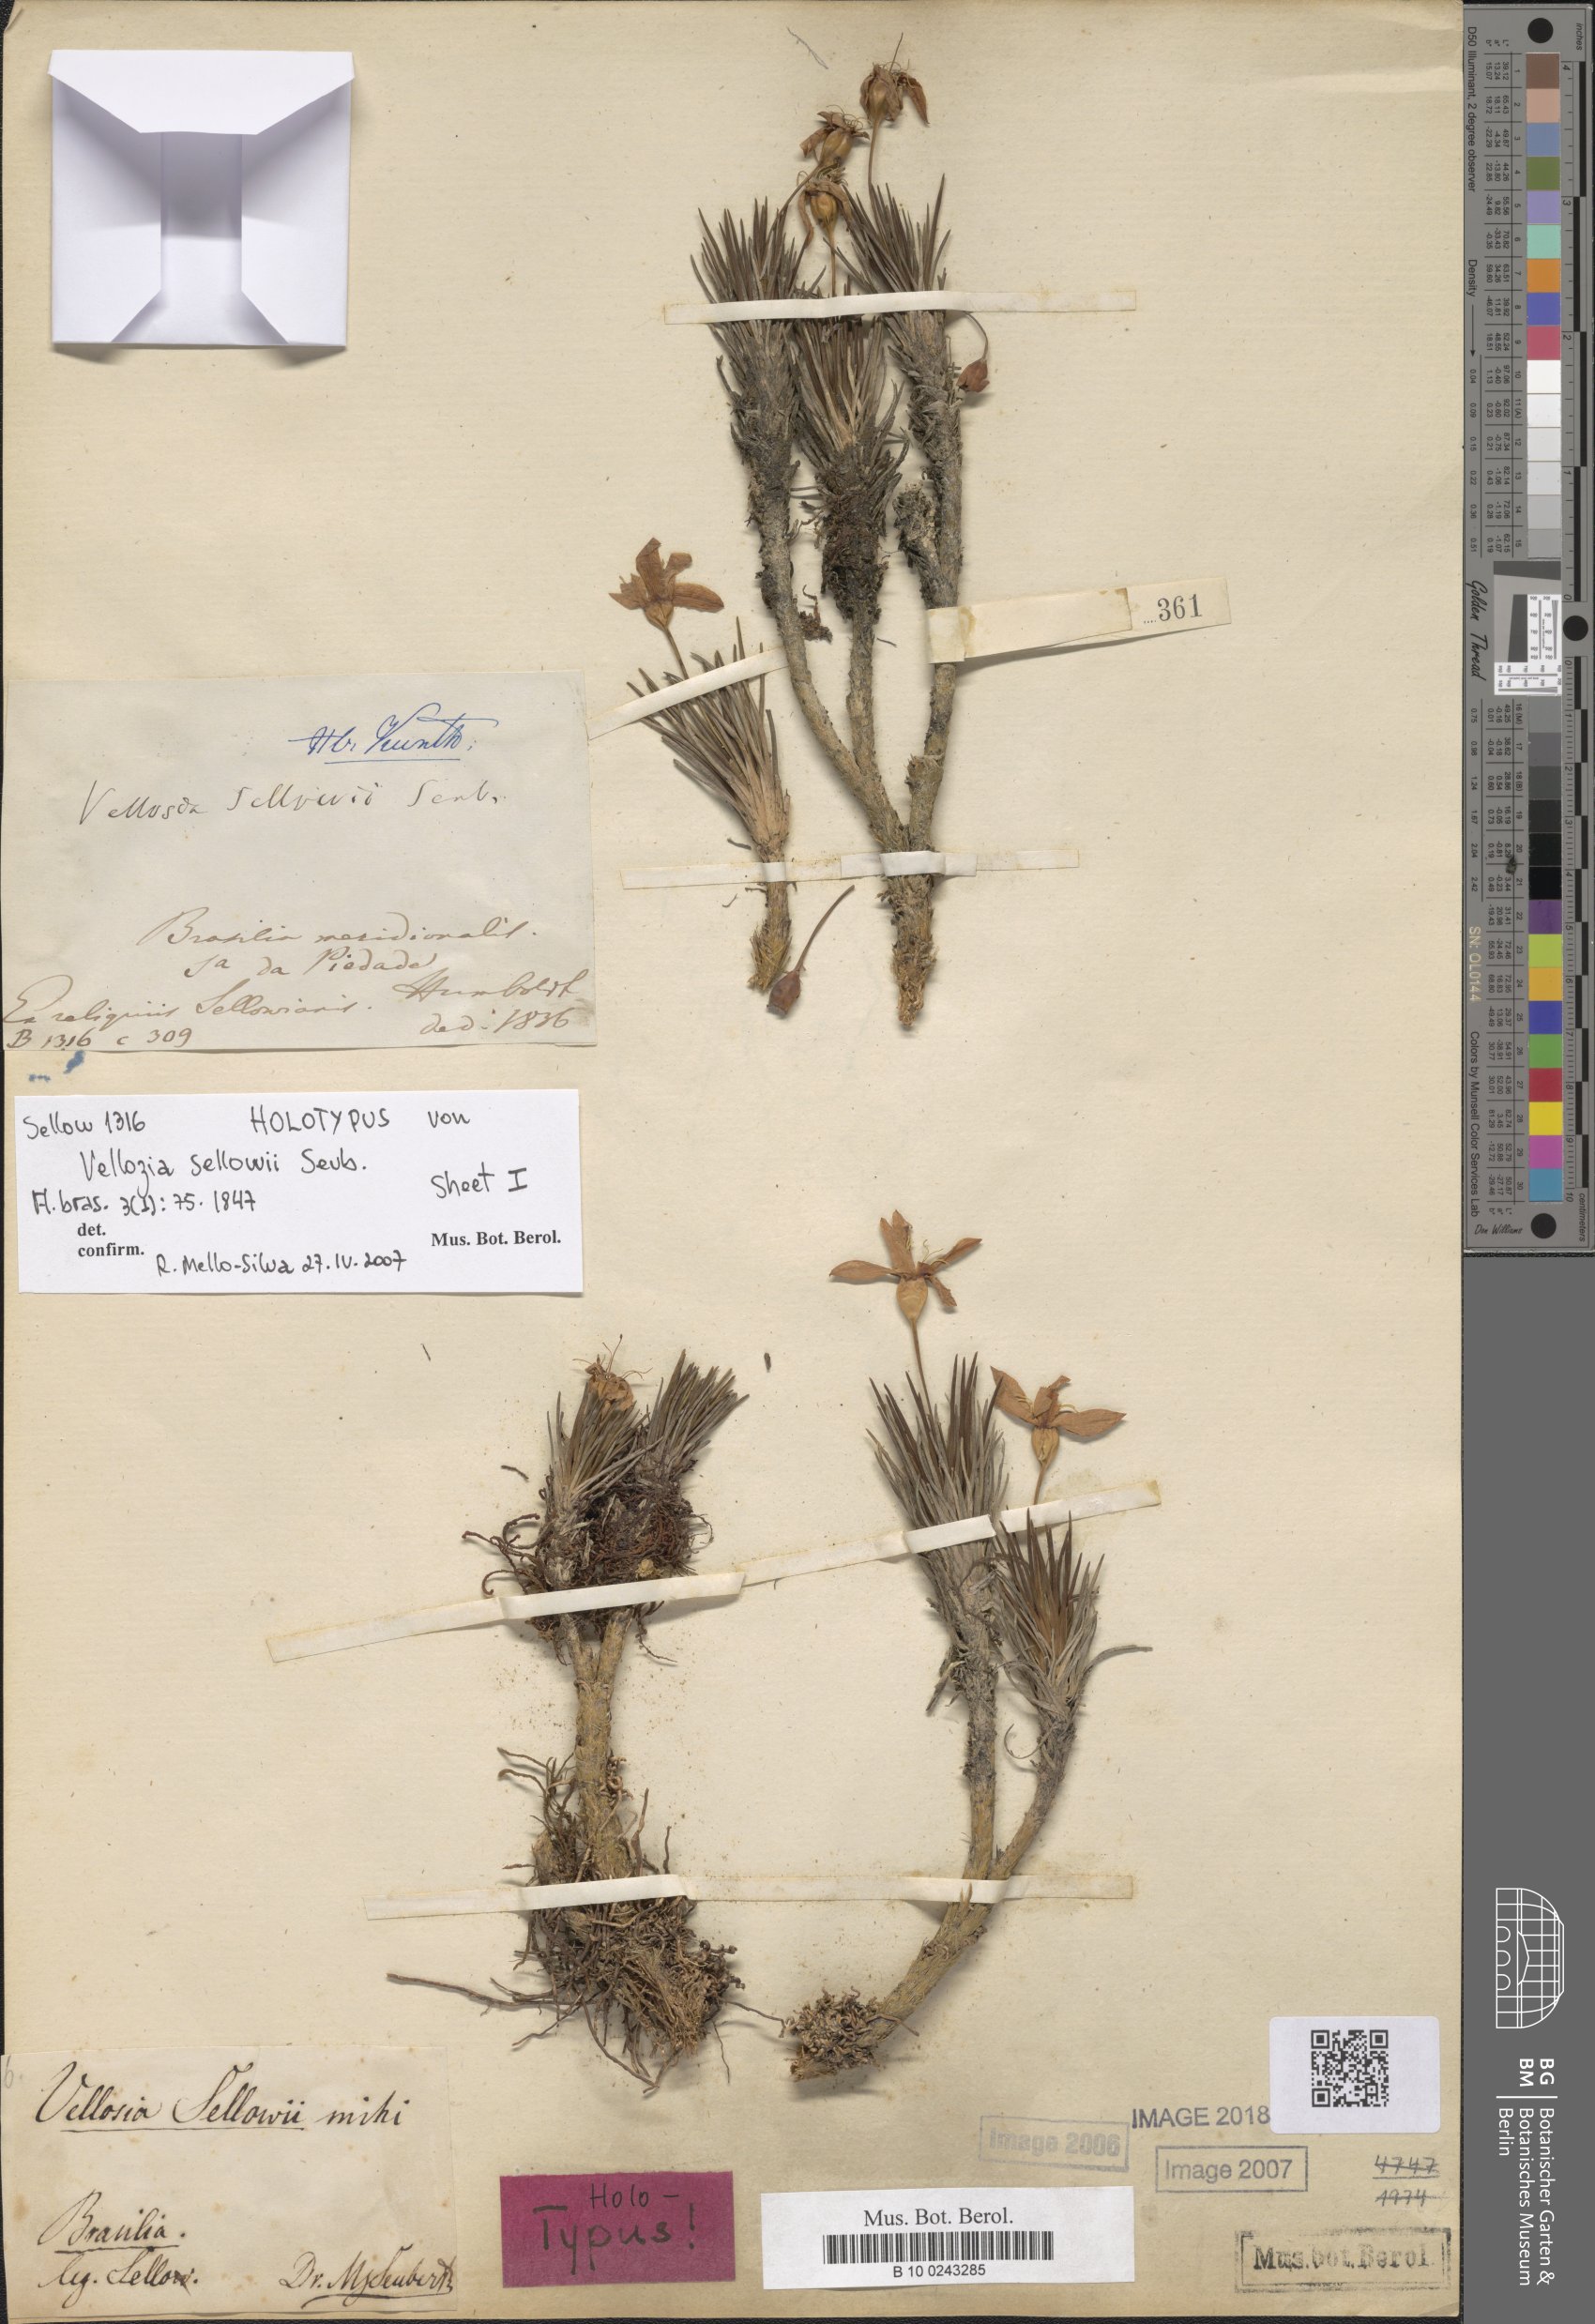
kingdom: Plantae
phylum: Tracheophyta
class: Liliopsida
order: Pandanales
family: Velloziaceae
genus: Vellozia
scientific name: Vellozia sellowii
